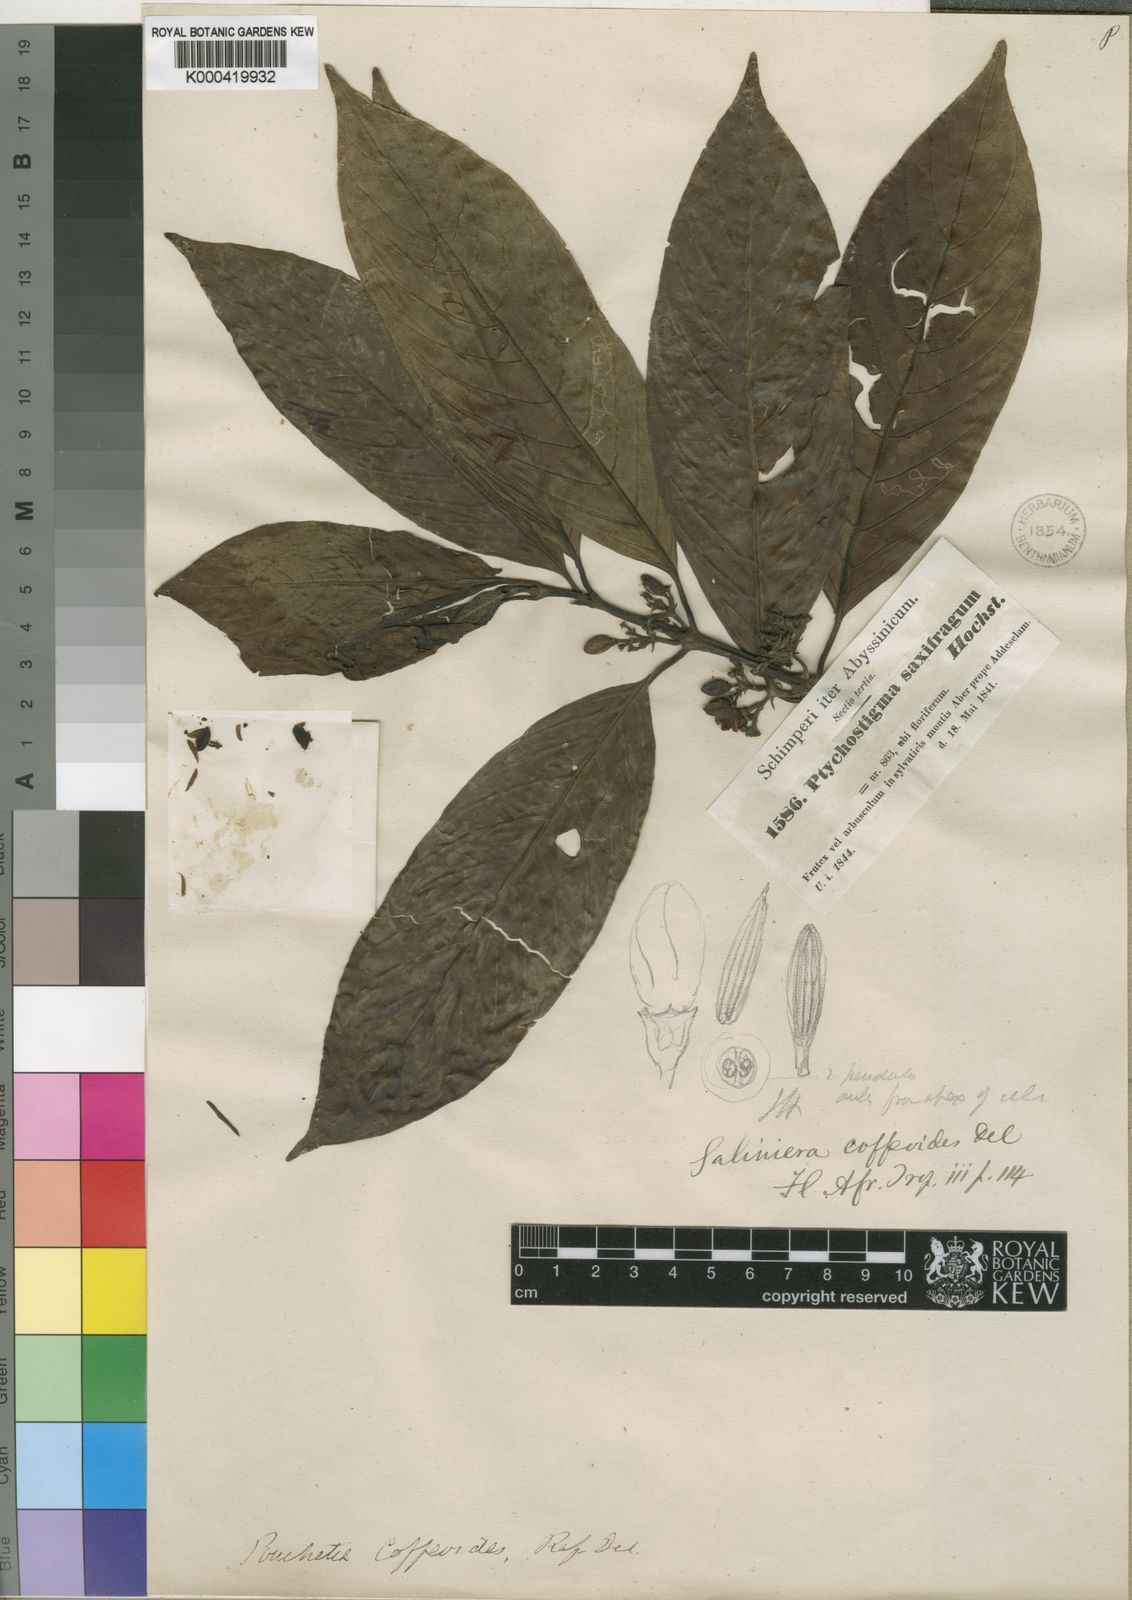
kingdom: Plantae
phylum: Tracheophyta
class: Magnoliopsida
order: Gentianales
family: Rubiaceae
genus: Galiniera
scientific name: Galiniera saxifraga
